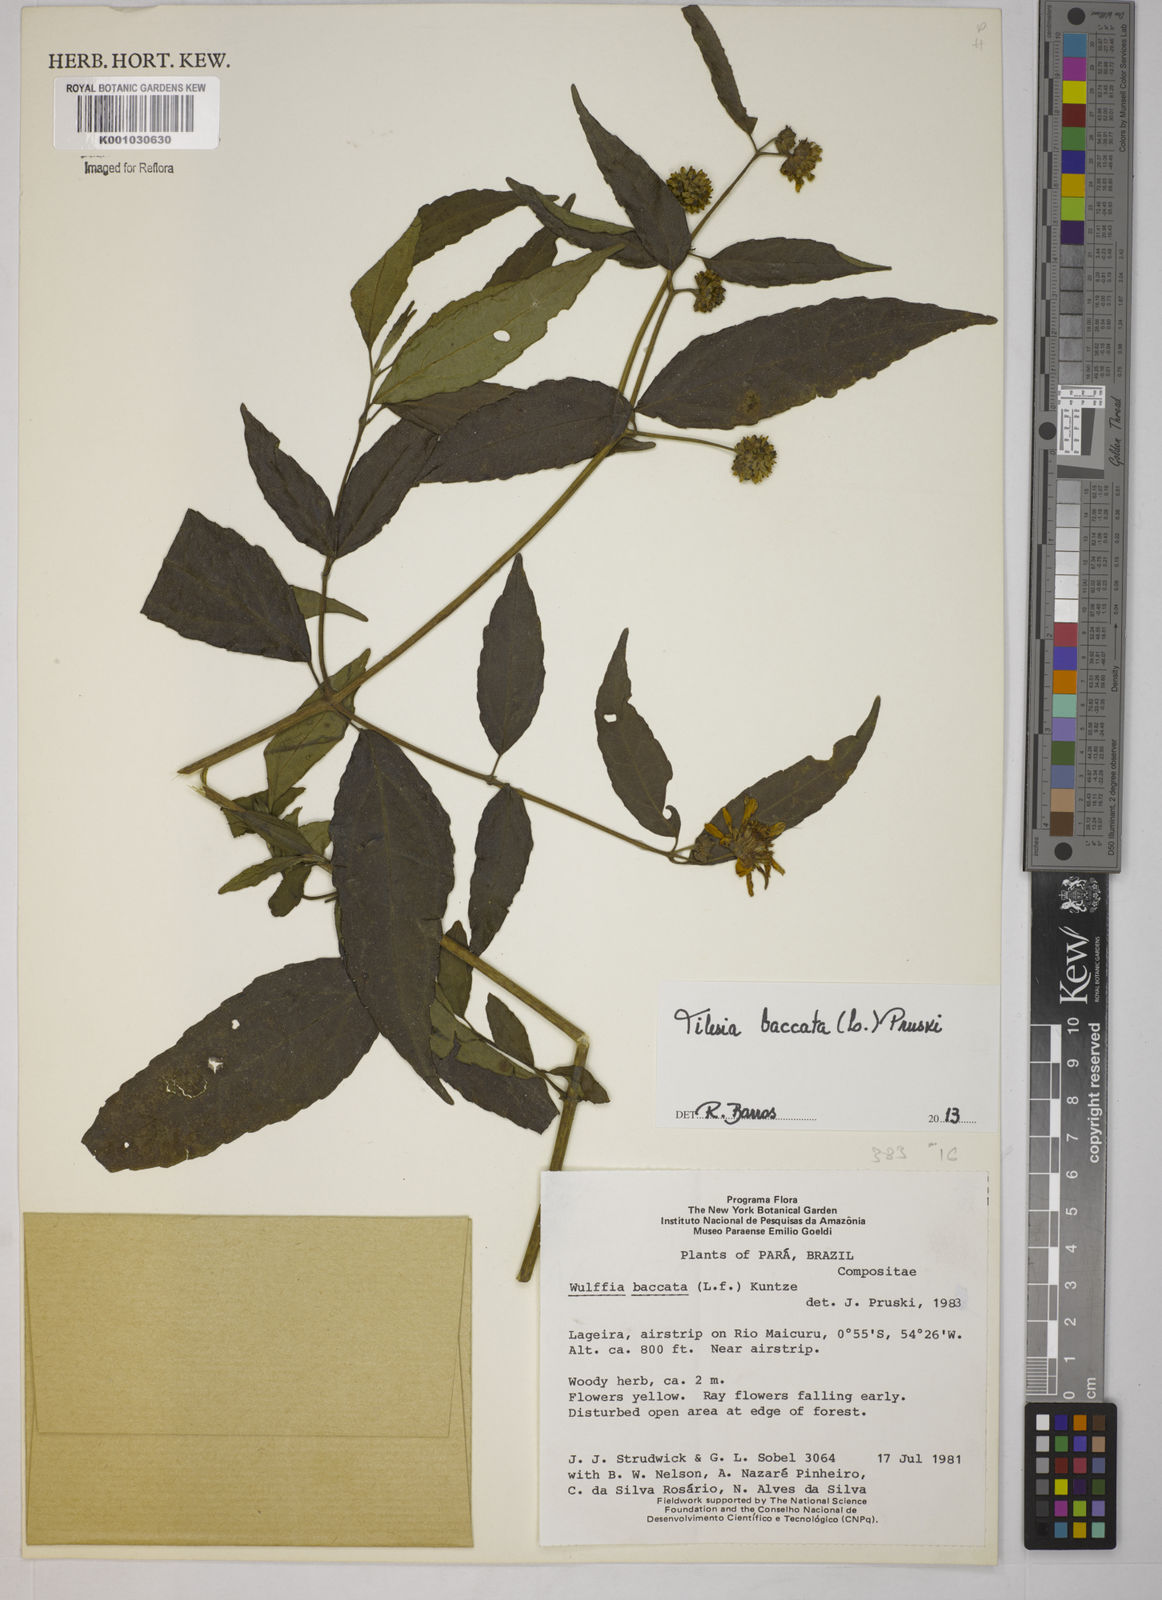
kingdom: Plantae
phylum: Tracheophyta
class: Magnoliopsida
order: Asterales
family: Asteraceae
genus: Tilesia
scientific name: Tilesia baccata
